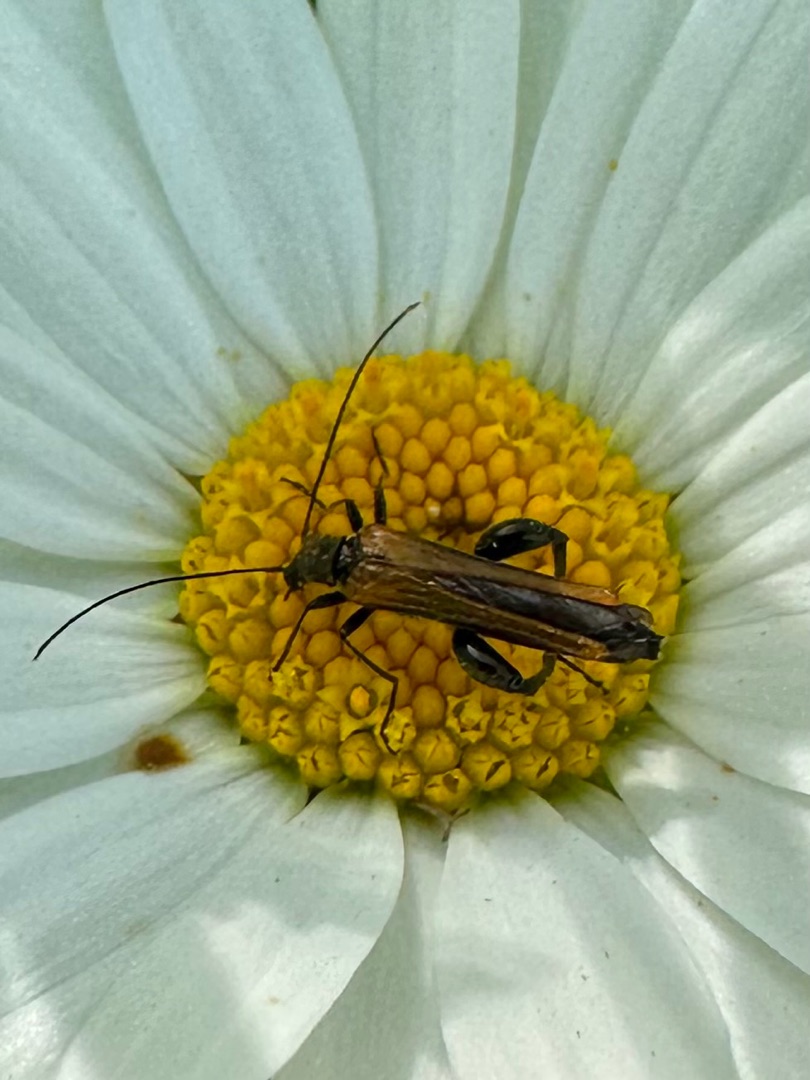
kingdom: Animalia
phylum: Arthropoda
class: Insecta
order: Coleoptera
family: Oedemeridae
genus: Oedemera
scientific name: Oedemera femorata
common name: Gulvinget solbille
